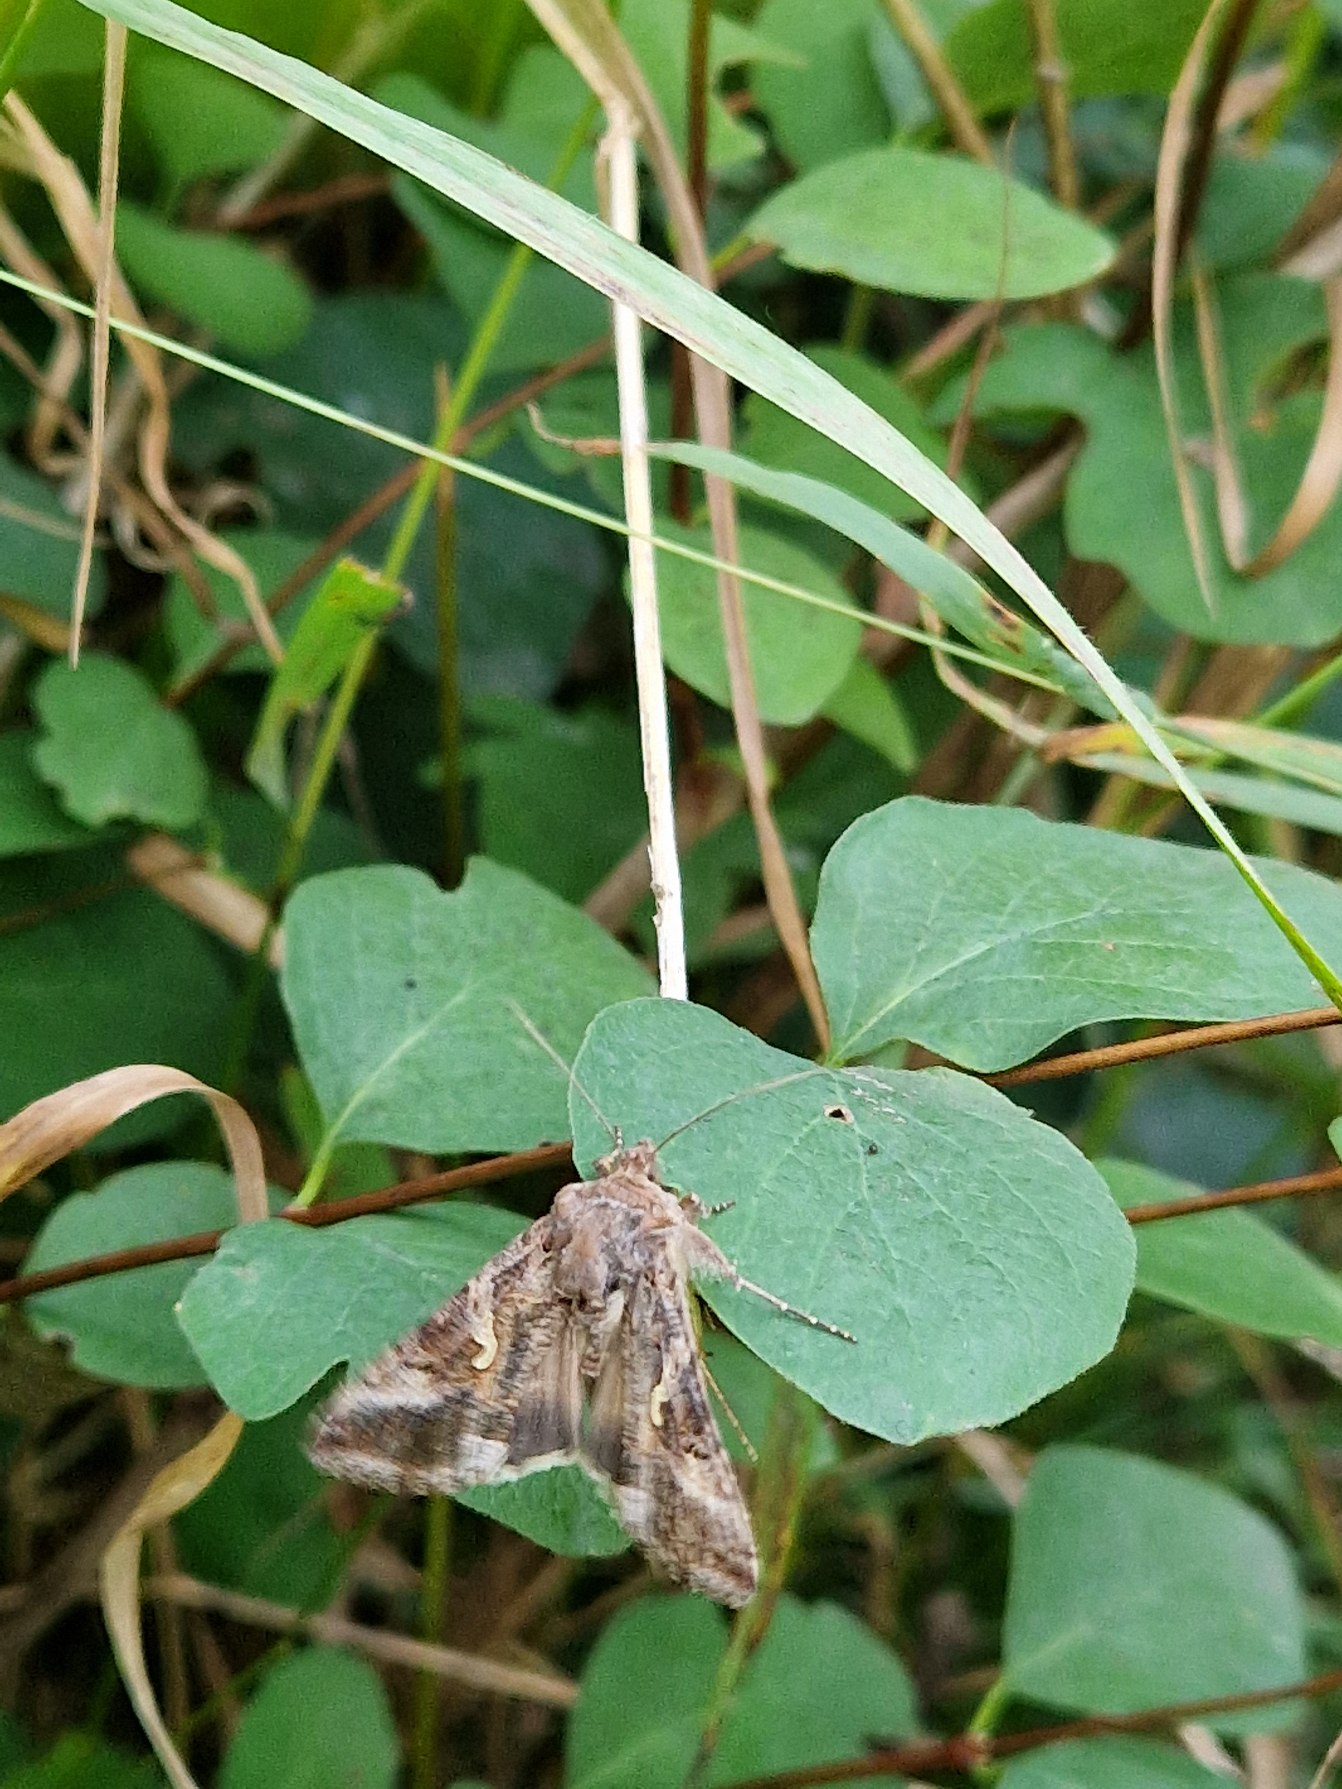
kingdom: Animalia
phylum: Arthropoda
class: Insecta
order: Lepidoptera
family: Noctuidae
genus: Autographa
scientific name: Autographa gamma
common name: Gammaugle
